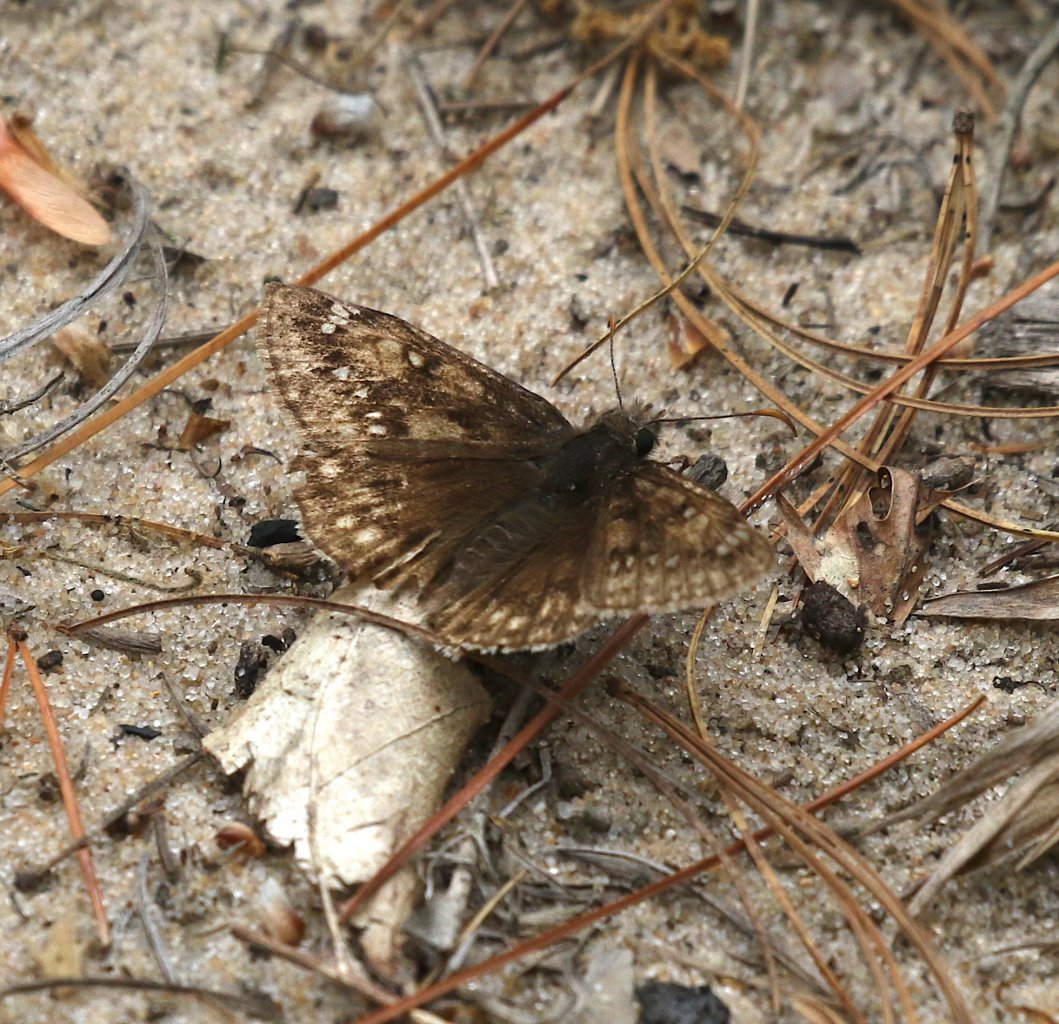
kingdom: Animalia
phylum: Arthropoda
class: Insecta
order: Lepidoptera
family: Hesperiidae
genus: Gesta
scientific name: Gesta
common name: Juvenal's Duskywing
